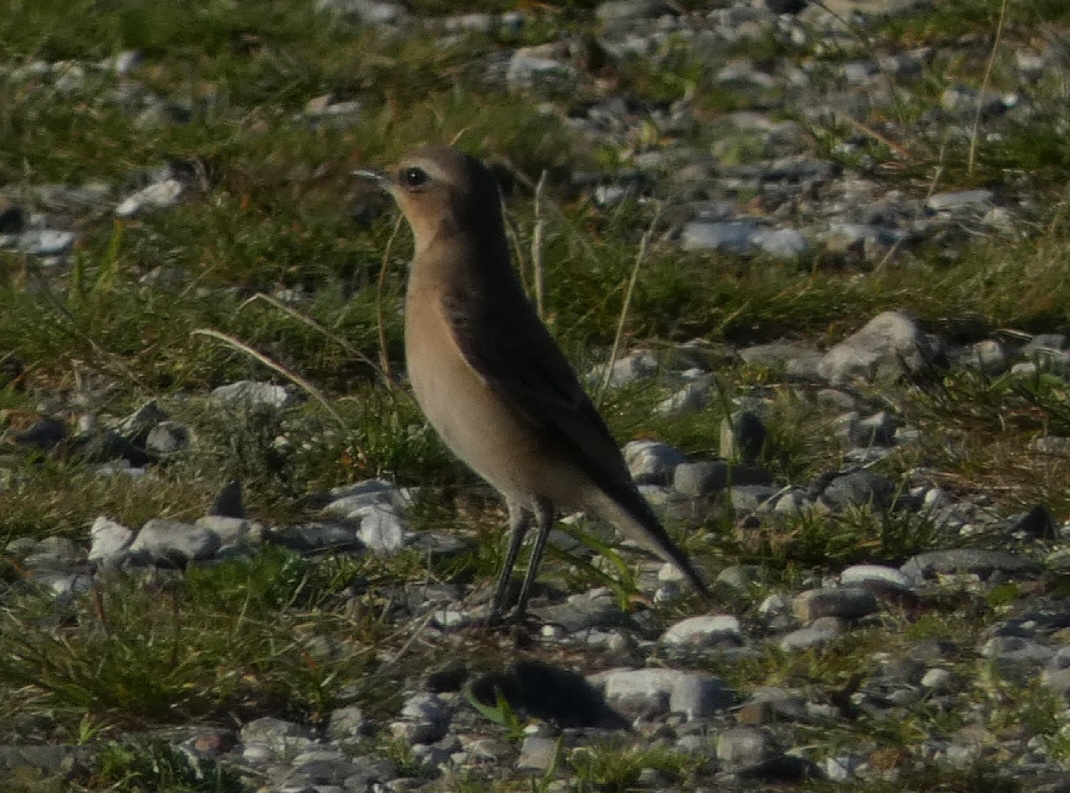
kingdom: Animalia
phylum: Chordata
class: Aves
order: Passeriformes
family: Muscicapidae
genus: Oenanthe
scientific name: Oenanthe oenanthe
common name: Stenpikker
